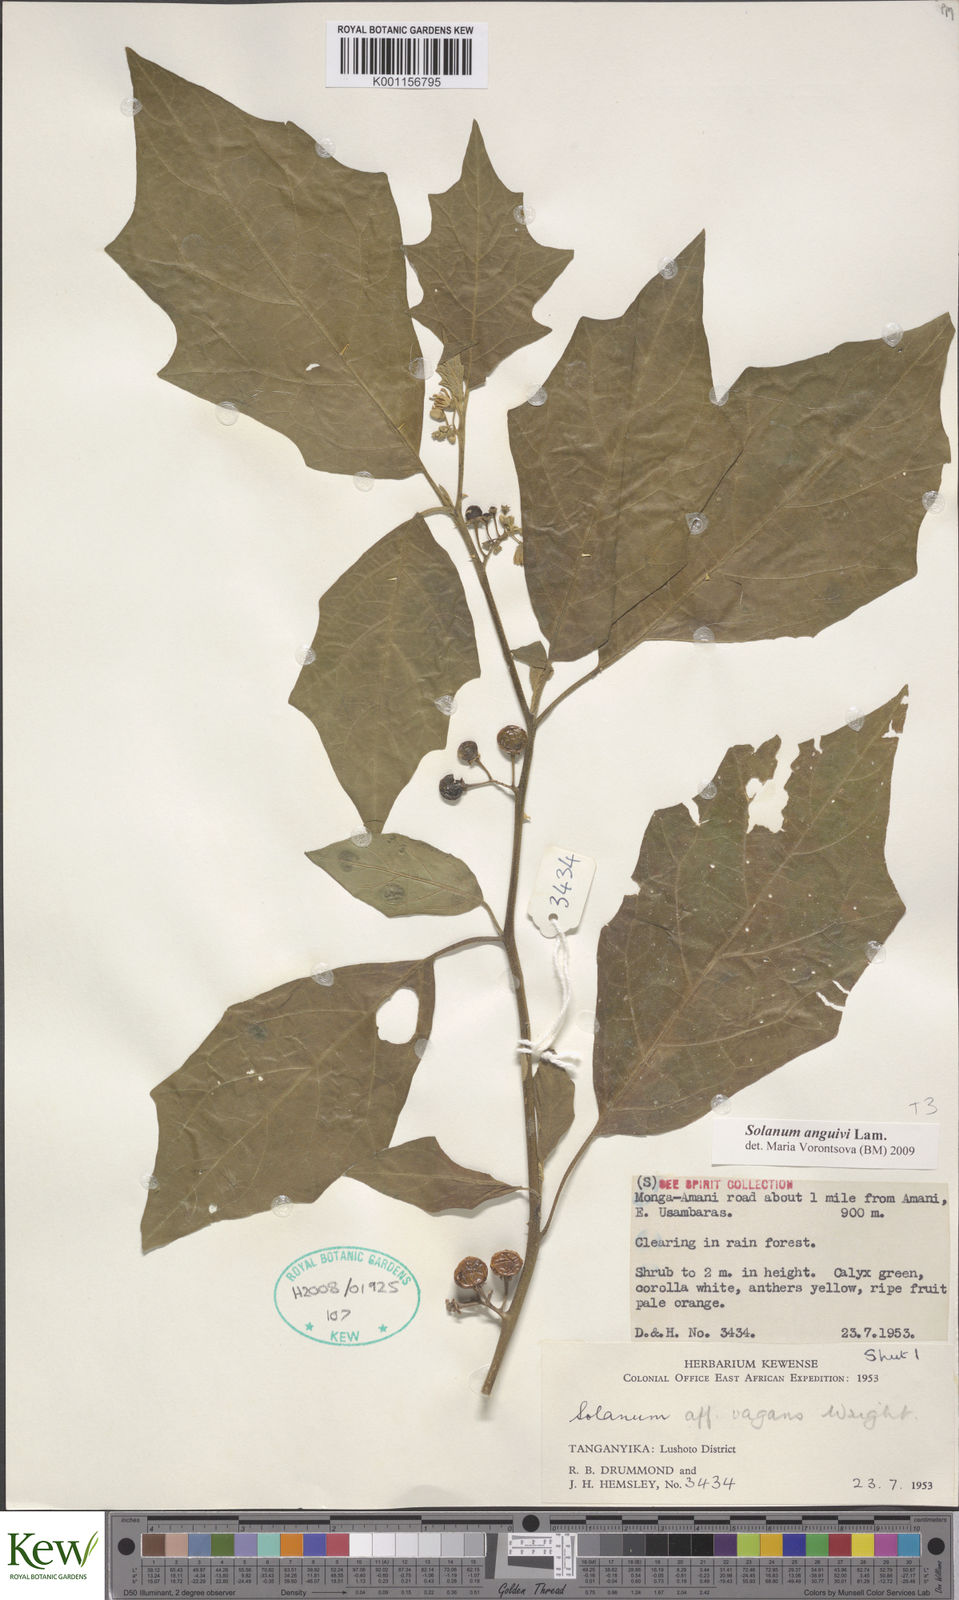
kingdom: Plantae
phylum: Tracheophyta
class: Magnoliopsida
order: Solanales
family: Solanaceae
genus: Solanum
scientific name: Solanum anguivi
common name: Forest bitterberry
